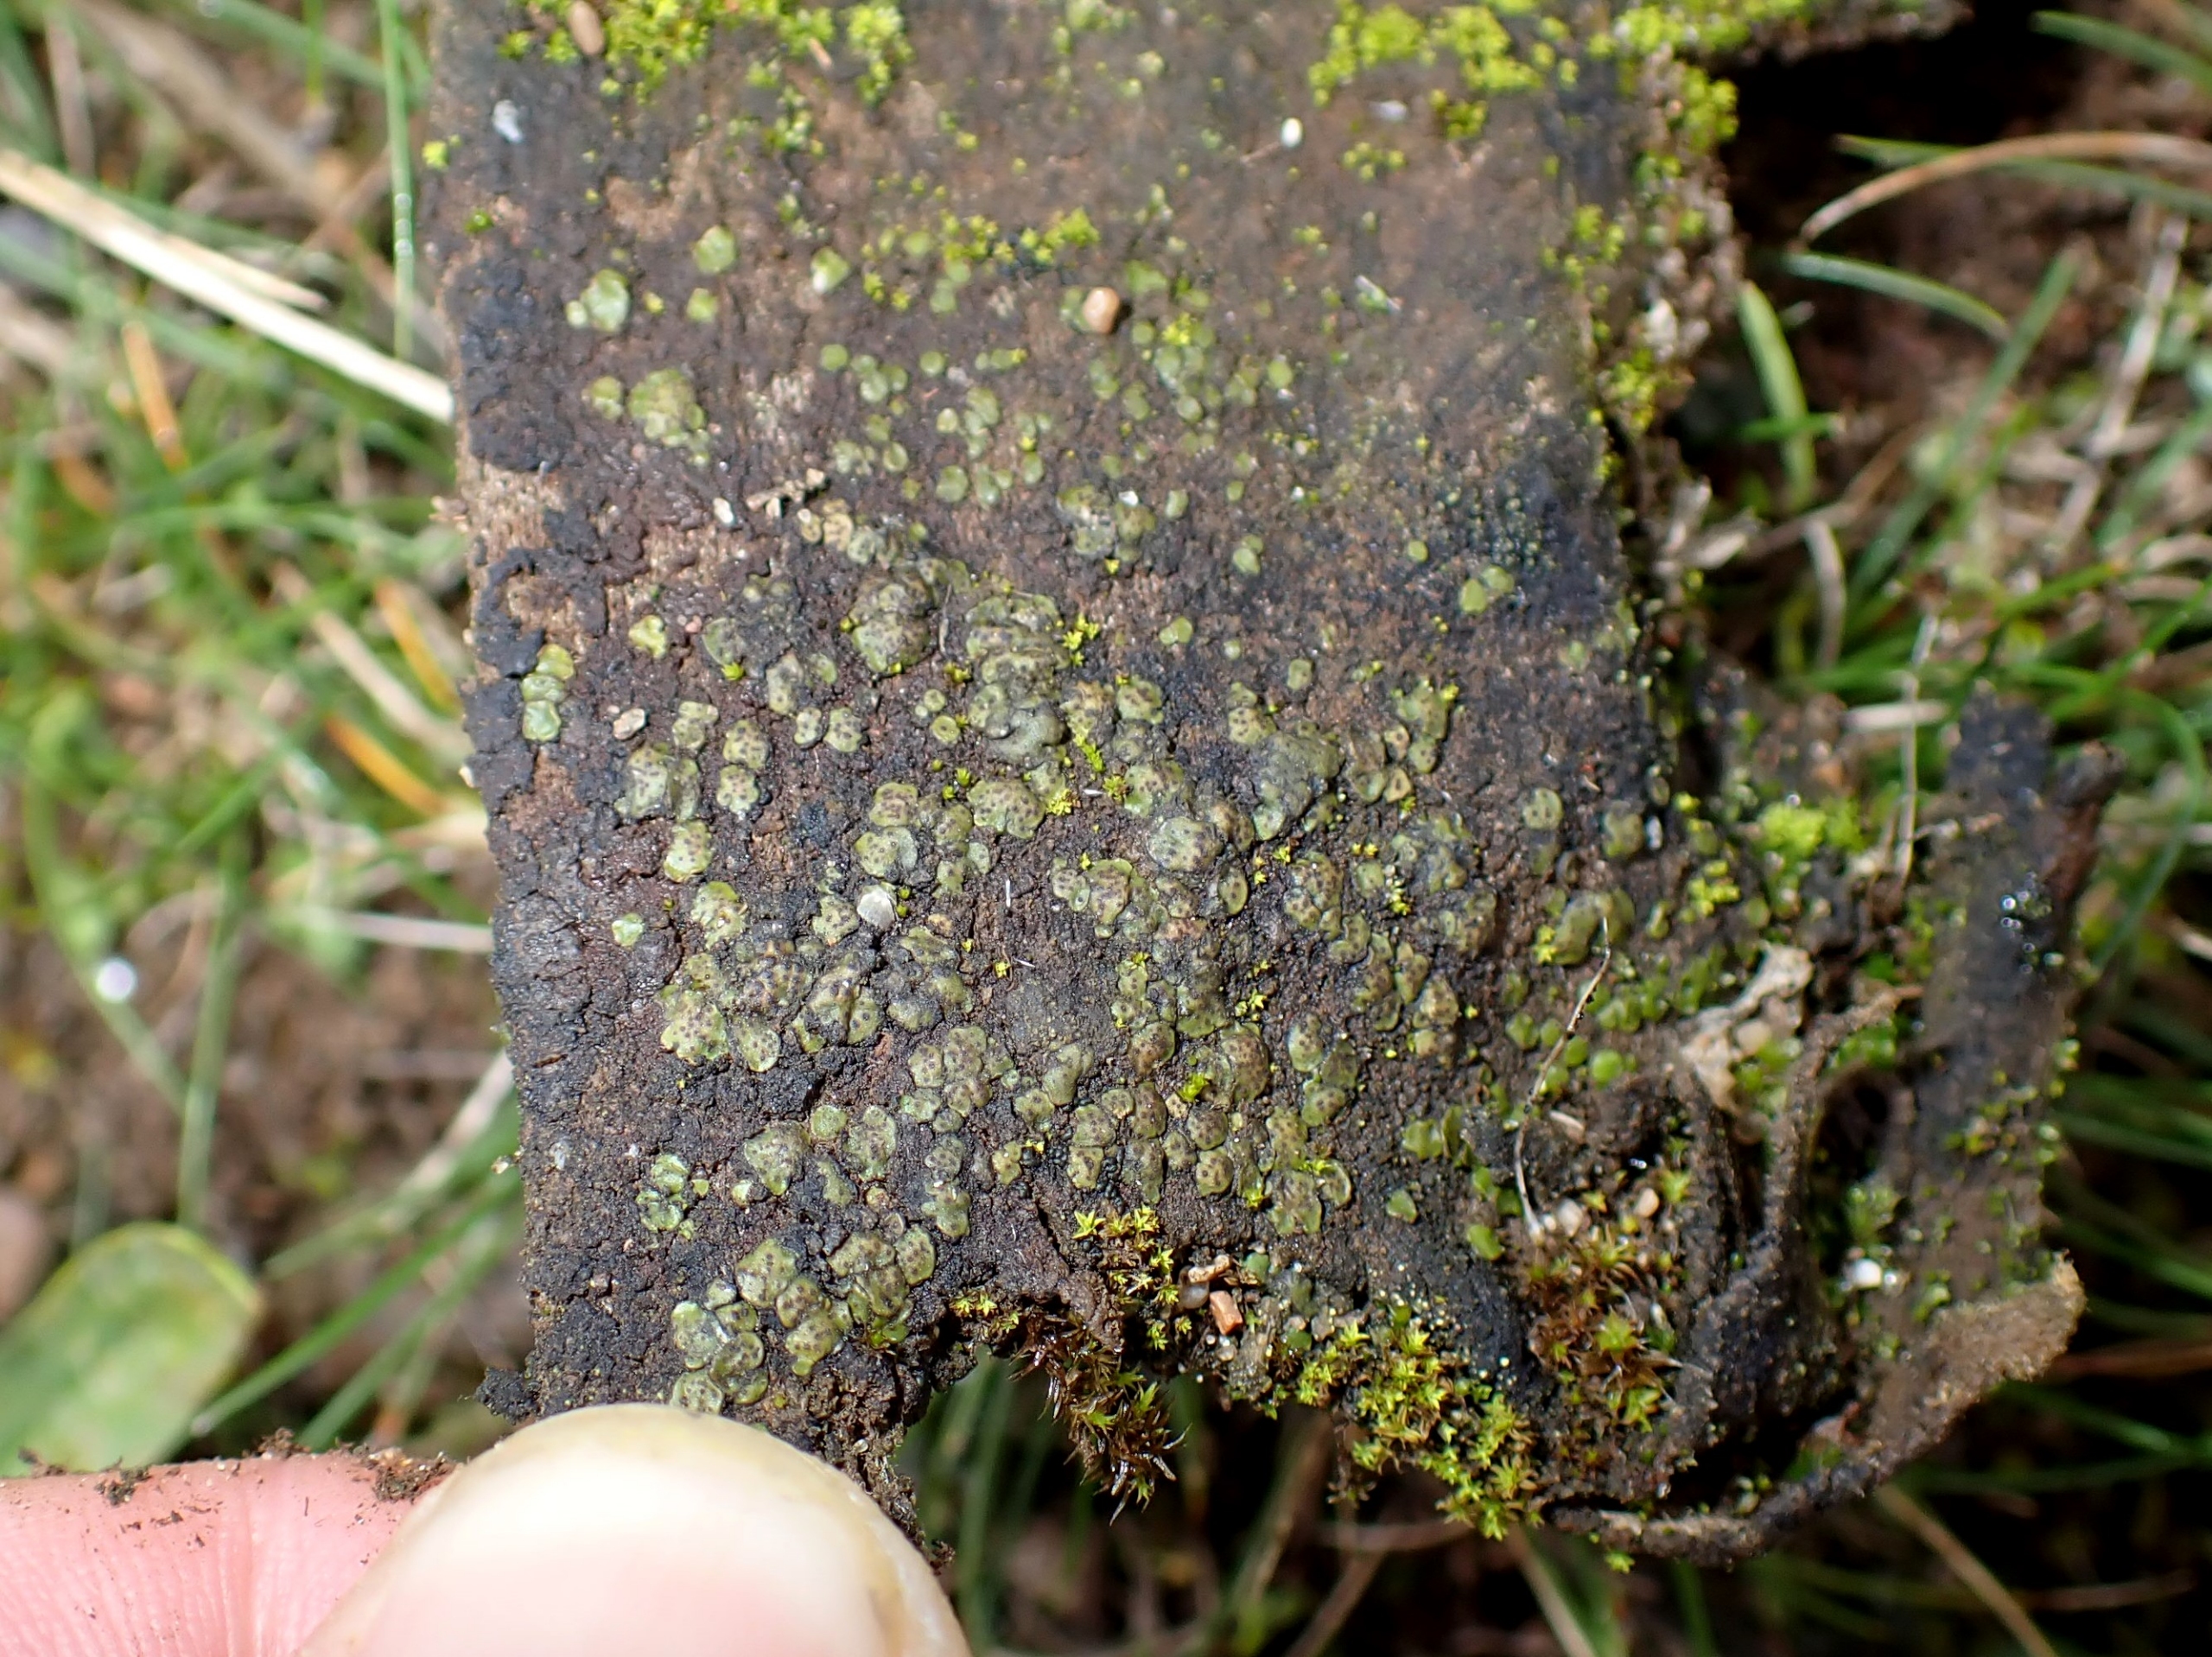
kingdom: Fungi
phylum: Ascomycota
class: Eurotiomycetes
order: Verrucariales
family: Verrucariaceae
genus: Catapyrenium
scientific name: Catapyrenium michelii
